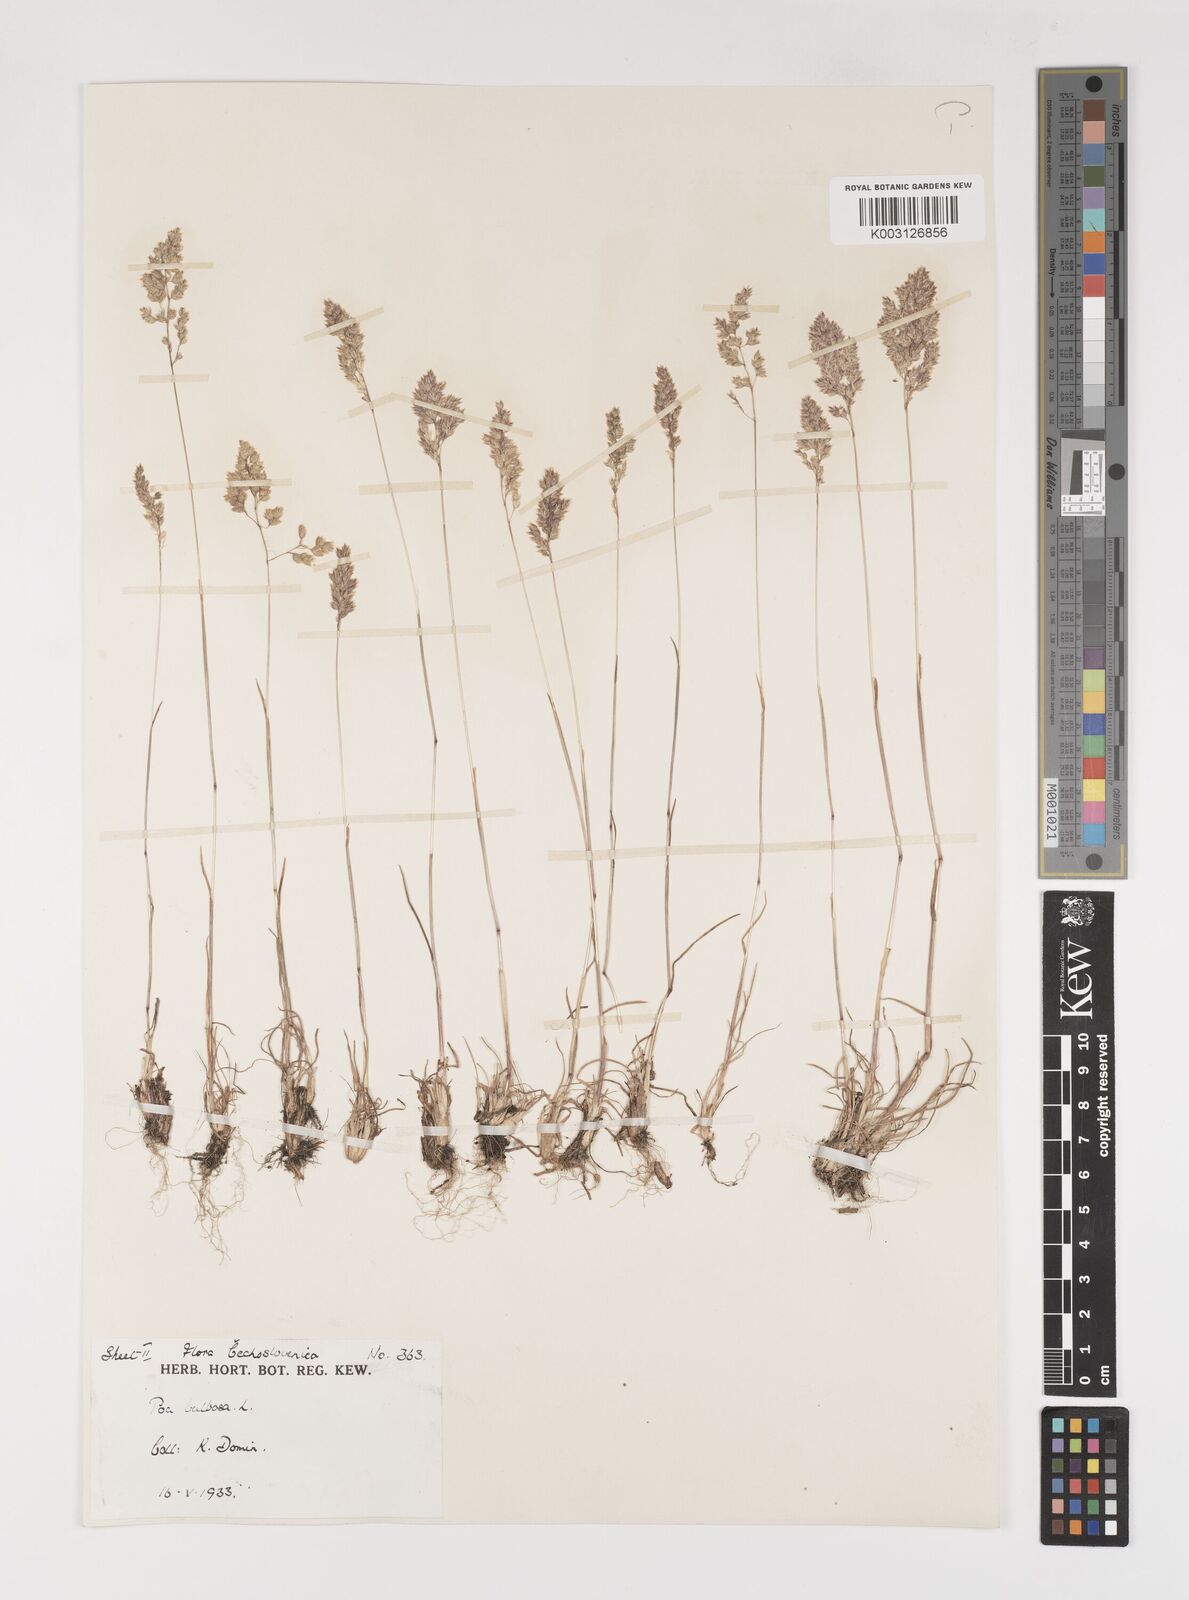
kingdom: Plantae
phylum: Tracheophyta
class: Liliopsida
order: Poales
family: Poaceae
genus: Poa
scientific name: Poa bulbosa
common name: Bulbous bluegrass
